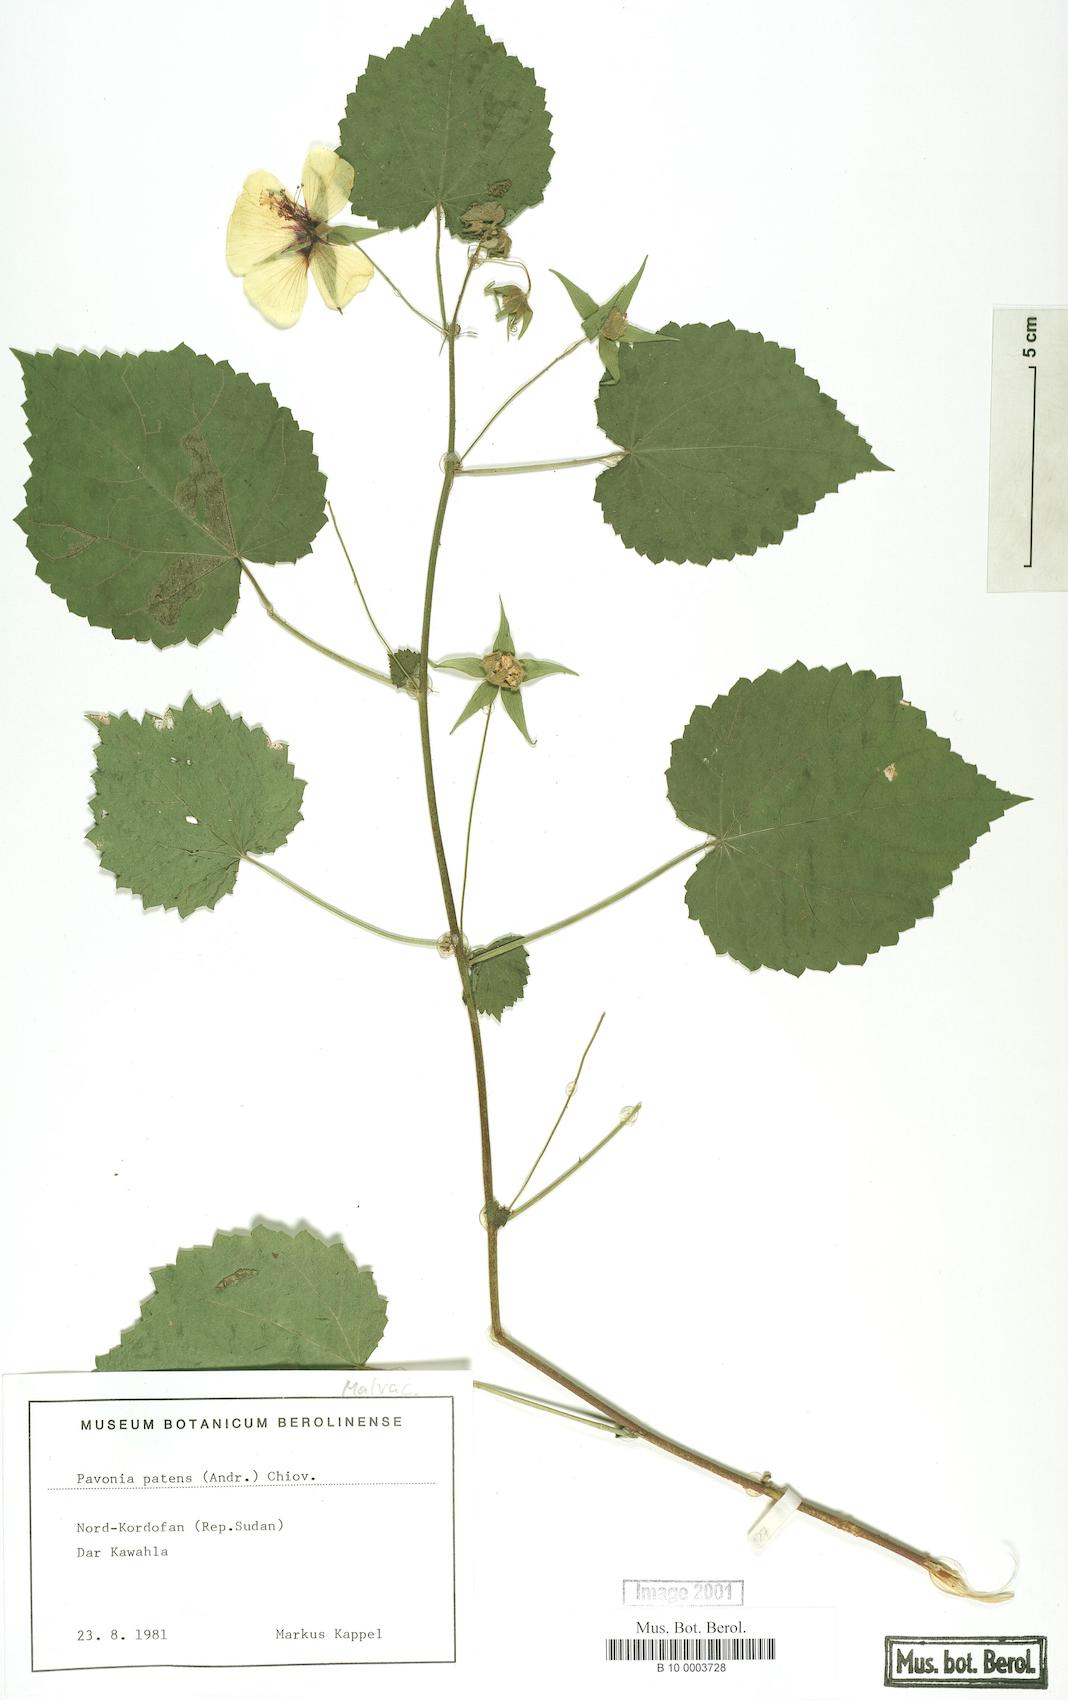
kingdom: Plantae
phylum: Tracheophyta
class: Magnoliopsida
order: Malvales
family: Malvaceae
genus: Abutilon
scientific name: Abutilon mauritianum
